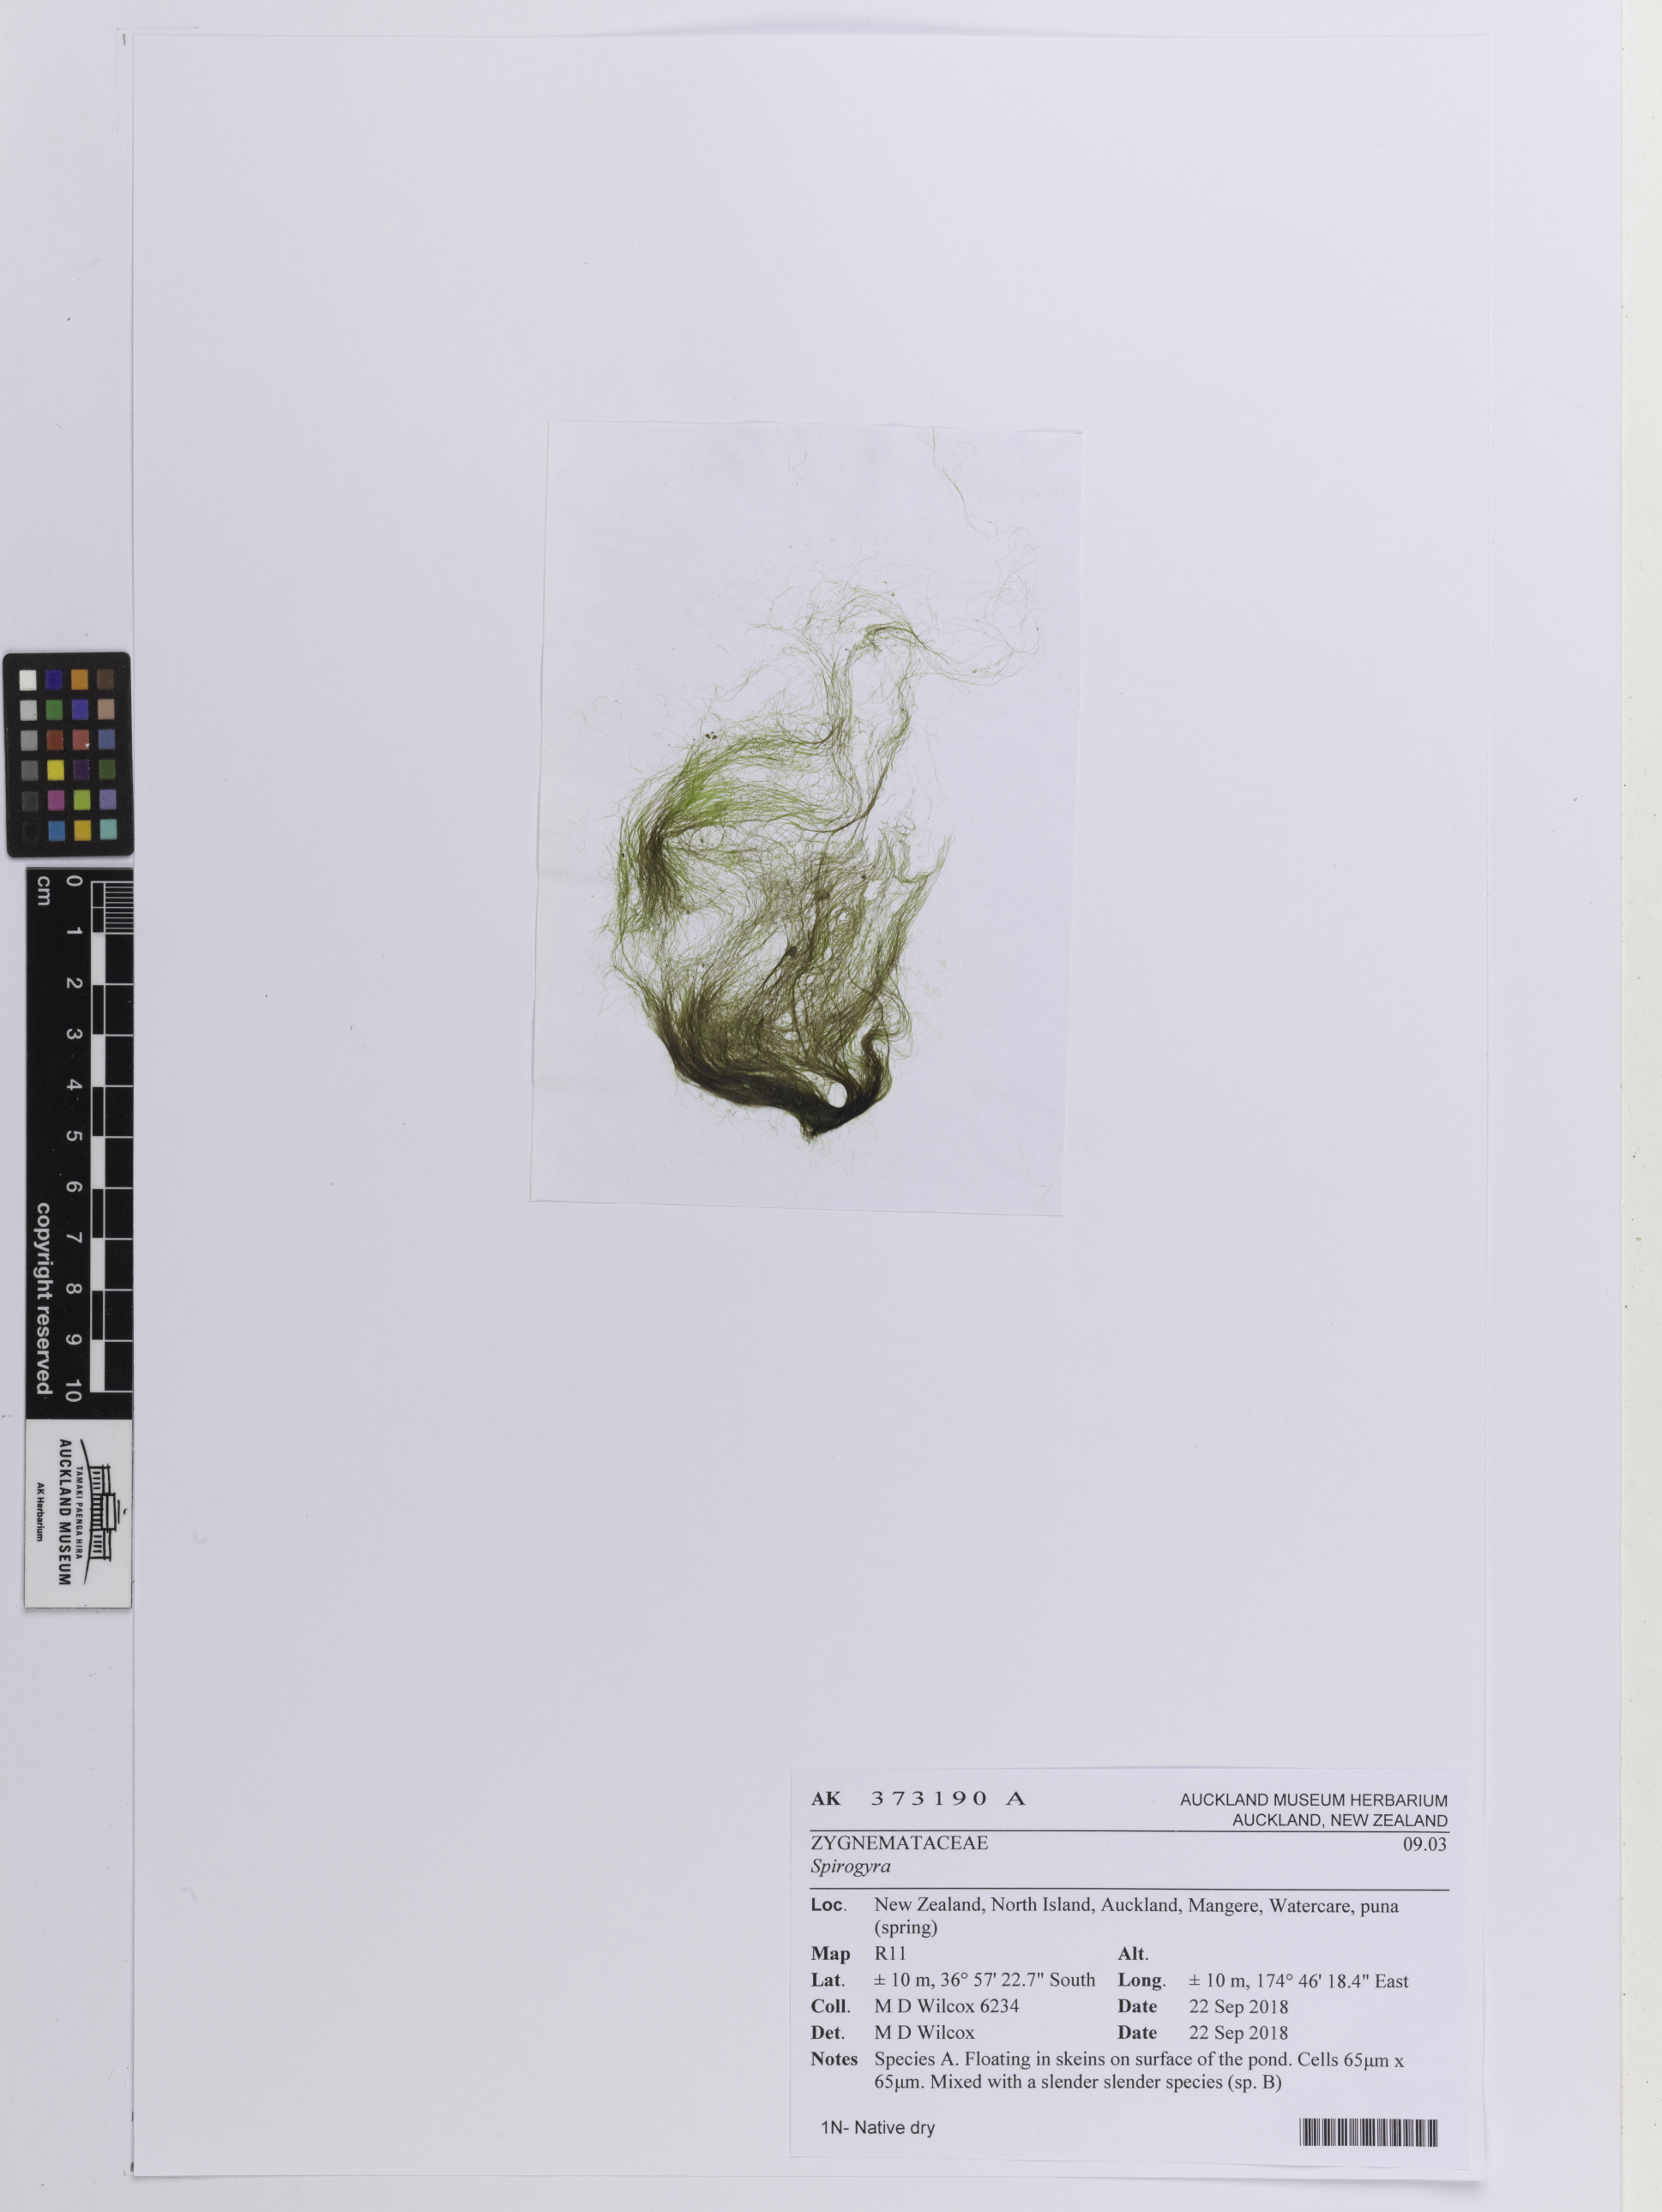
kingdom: Plantae
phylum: Charophyta
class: Zygnematophyceae
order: Zygnematales
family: Zygnemataceae
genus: Spirogyra
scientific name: Spirogyra
